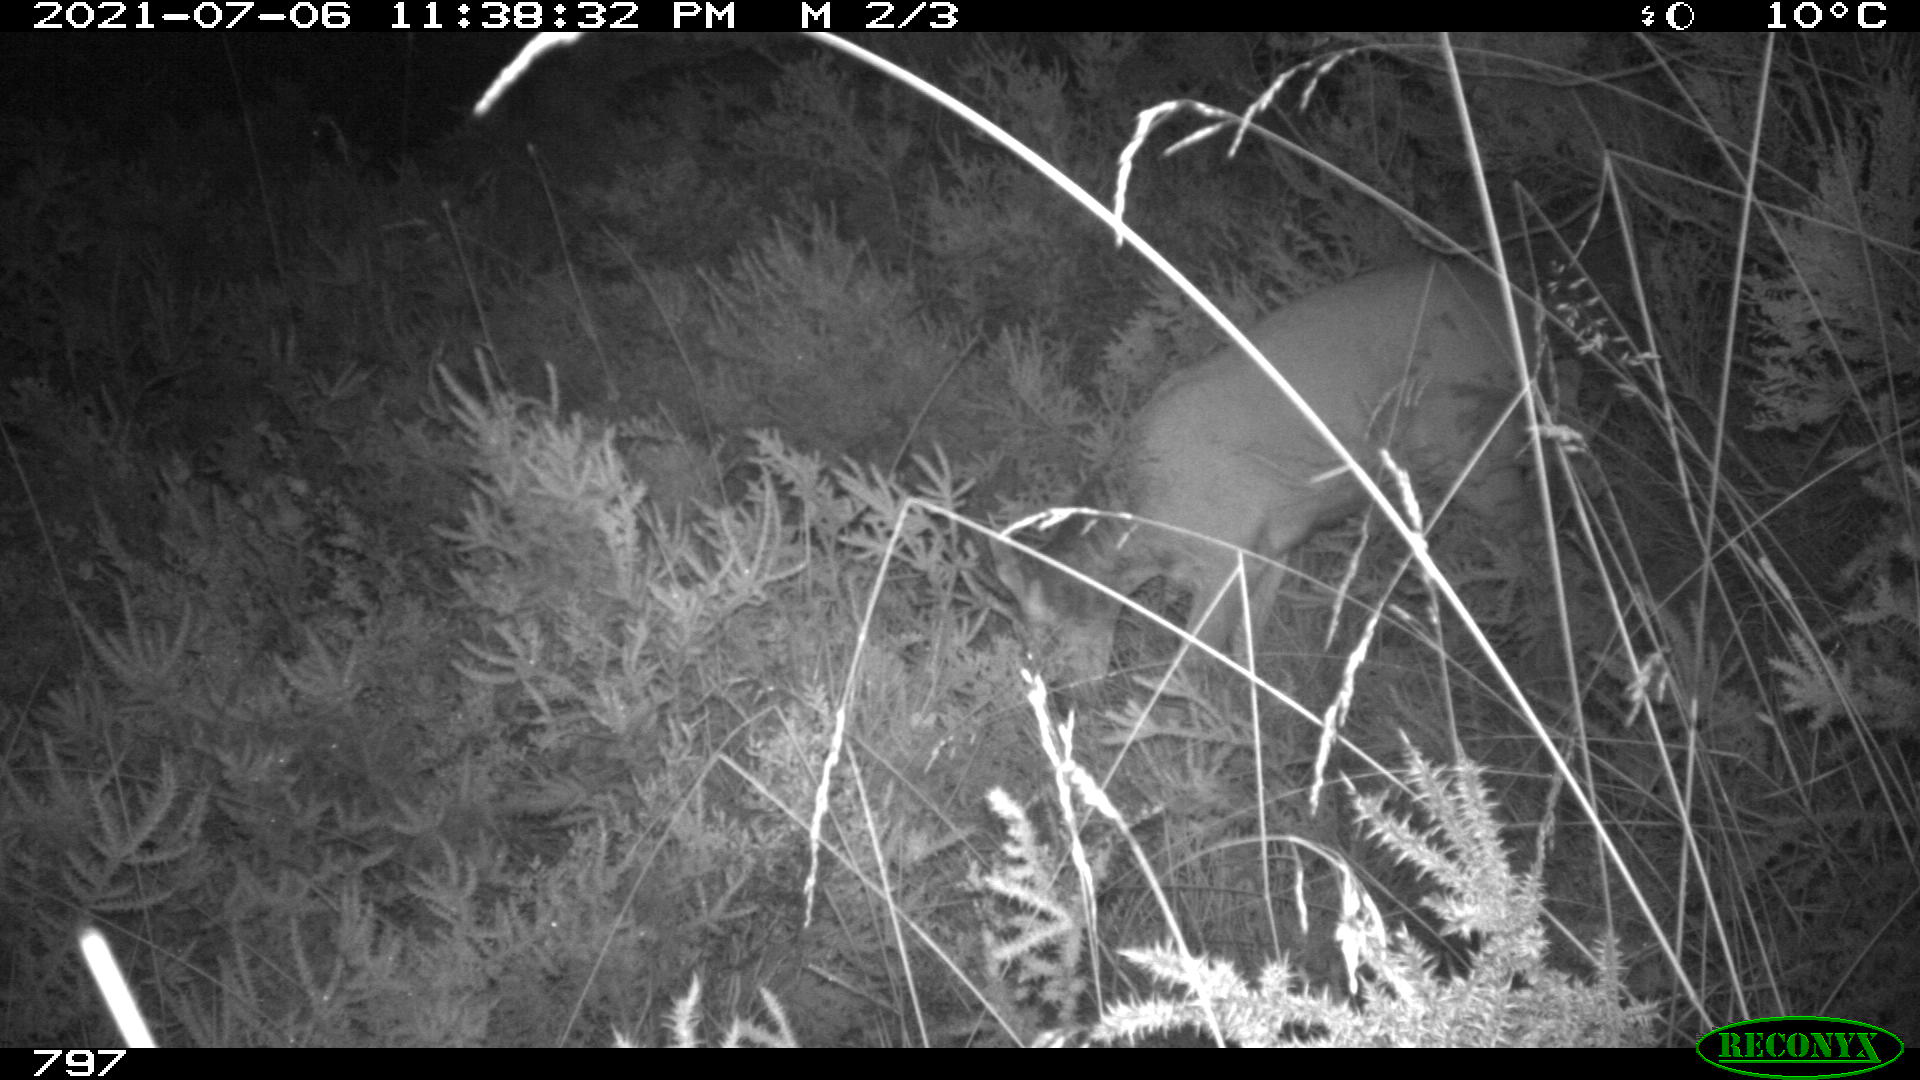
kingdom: Animalia
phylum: Chordata
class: Mammalia
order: Artiodactyla
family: Cervidae
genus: Capreolus
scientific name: Capreolus capreolus
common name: Western roe deer
